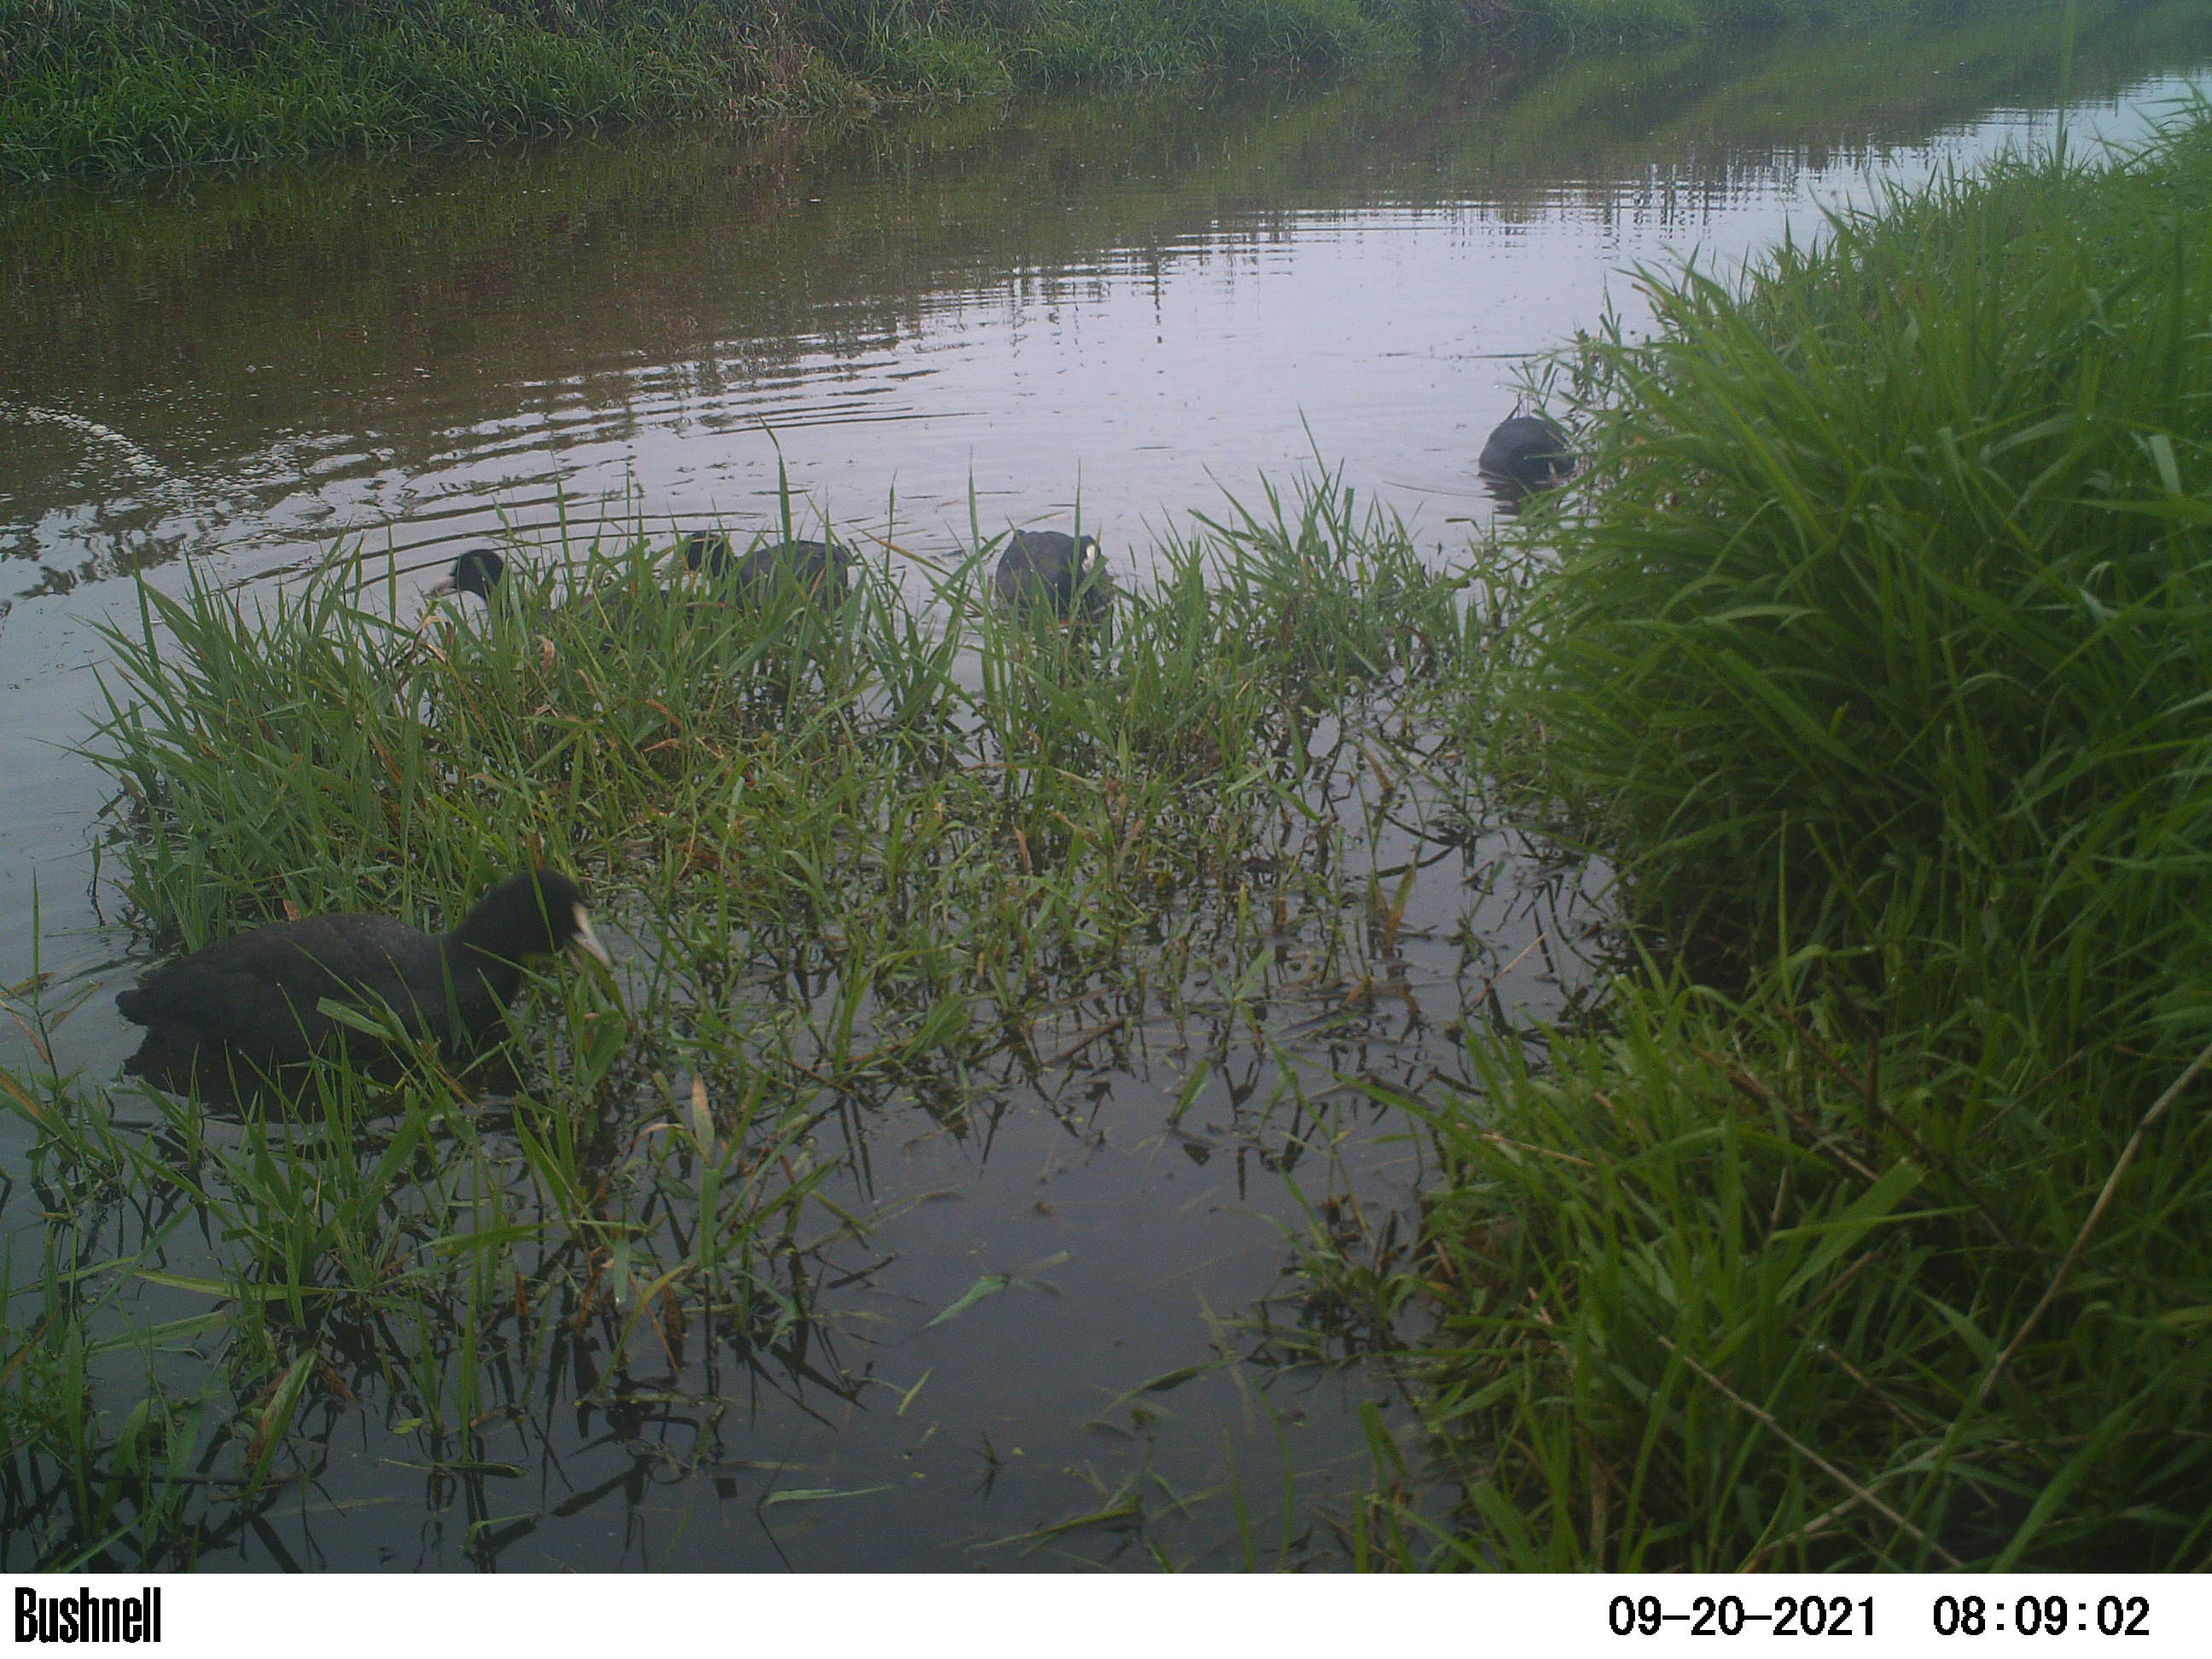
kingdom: Animalia
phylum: Chordata
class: Aves
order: Gruiformes
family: Rallidae
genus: Fulica
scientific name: Fulica atra
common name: Eurasian coot
